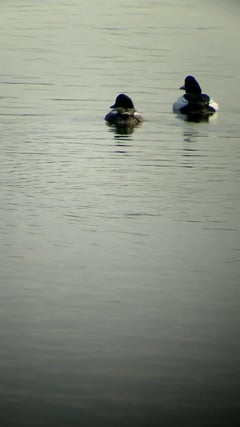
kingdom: Animalia
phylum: Chordata
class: Aves
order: Anseriformes
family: Anatidae
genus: Bucephala
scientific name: Bucephala clangula
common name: Common goldeneye
